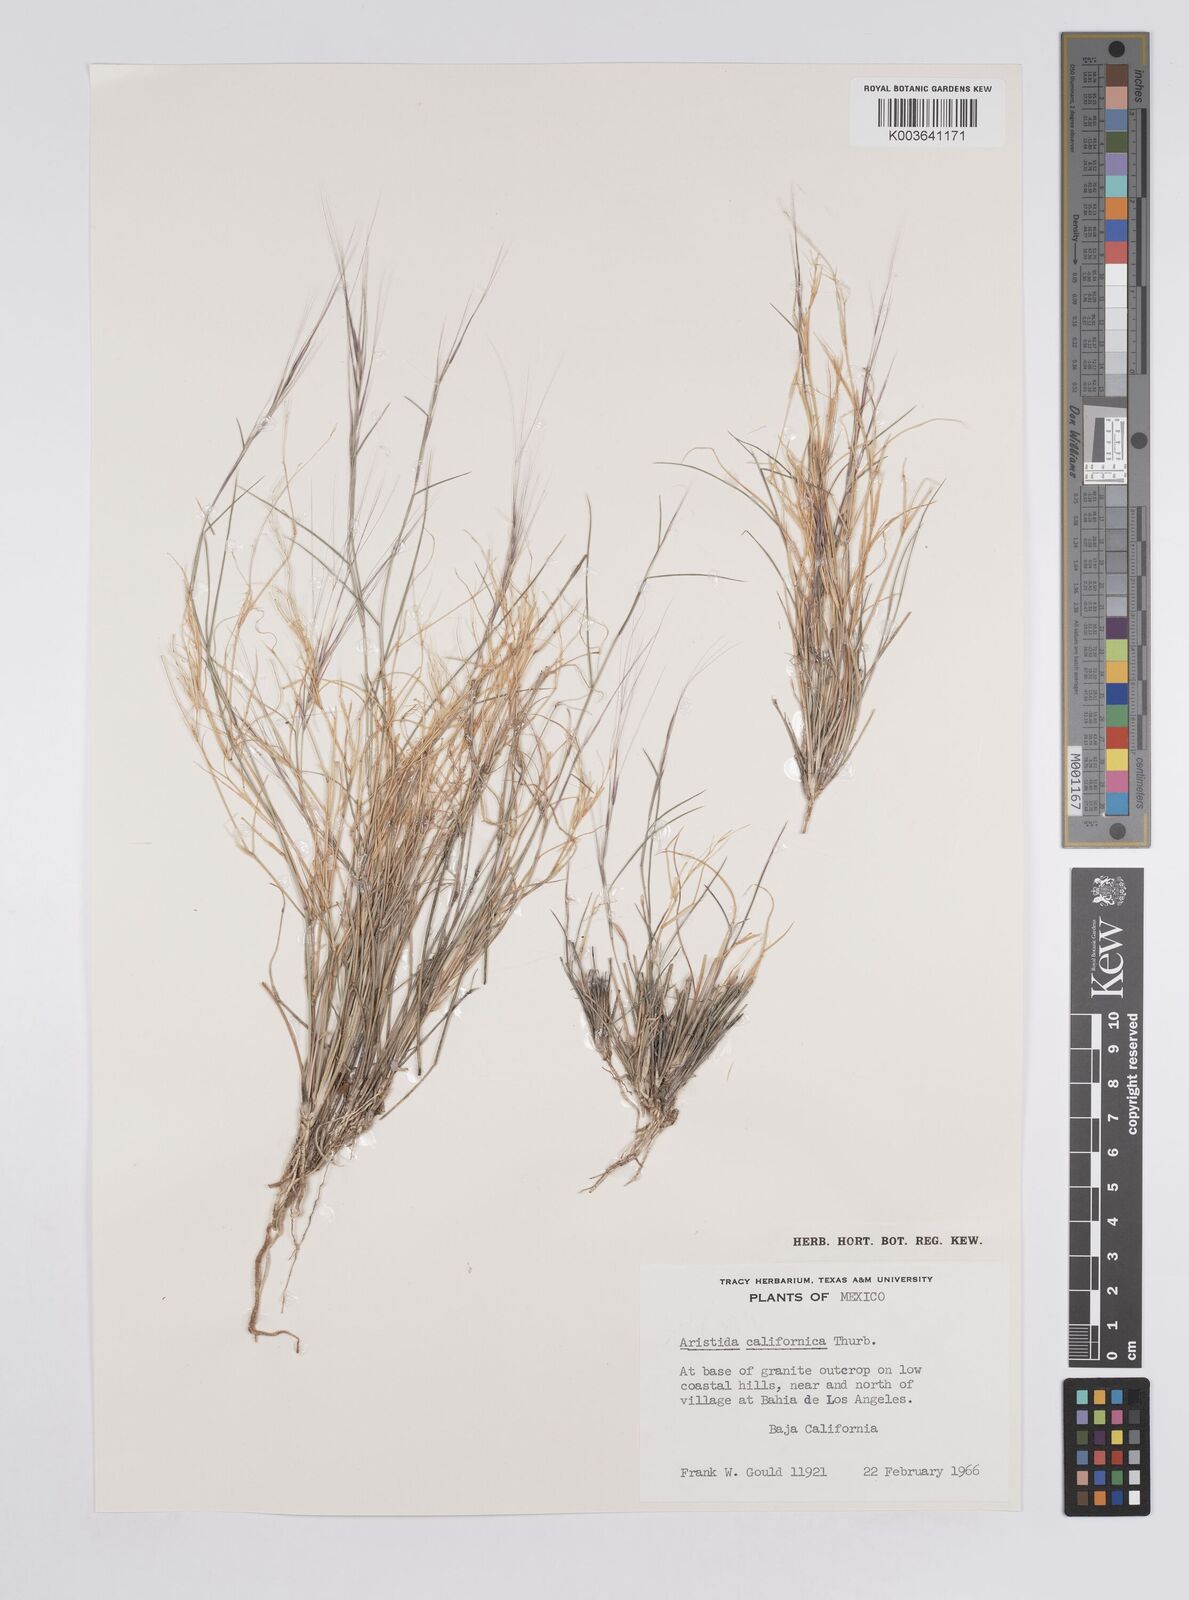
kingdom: Plantae
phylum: Tracheophyta
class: Liliopsida
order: Poales
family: Poaceae
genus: Aristida
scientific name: Aristida californica
